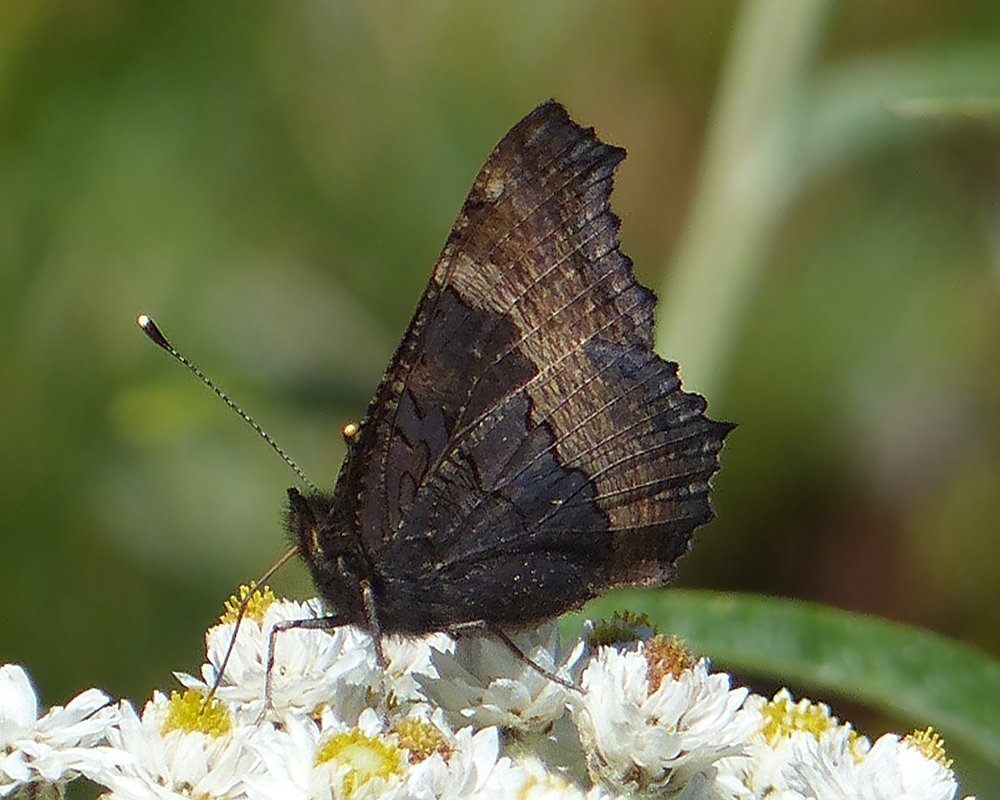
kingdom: Animalia
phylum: Arthropoda
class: Insecta
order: Lepidoptera
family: Nymphalidae
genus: Aglais
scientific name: Aglais milberti
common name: Milbert's Tortoiseshell
